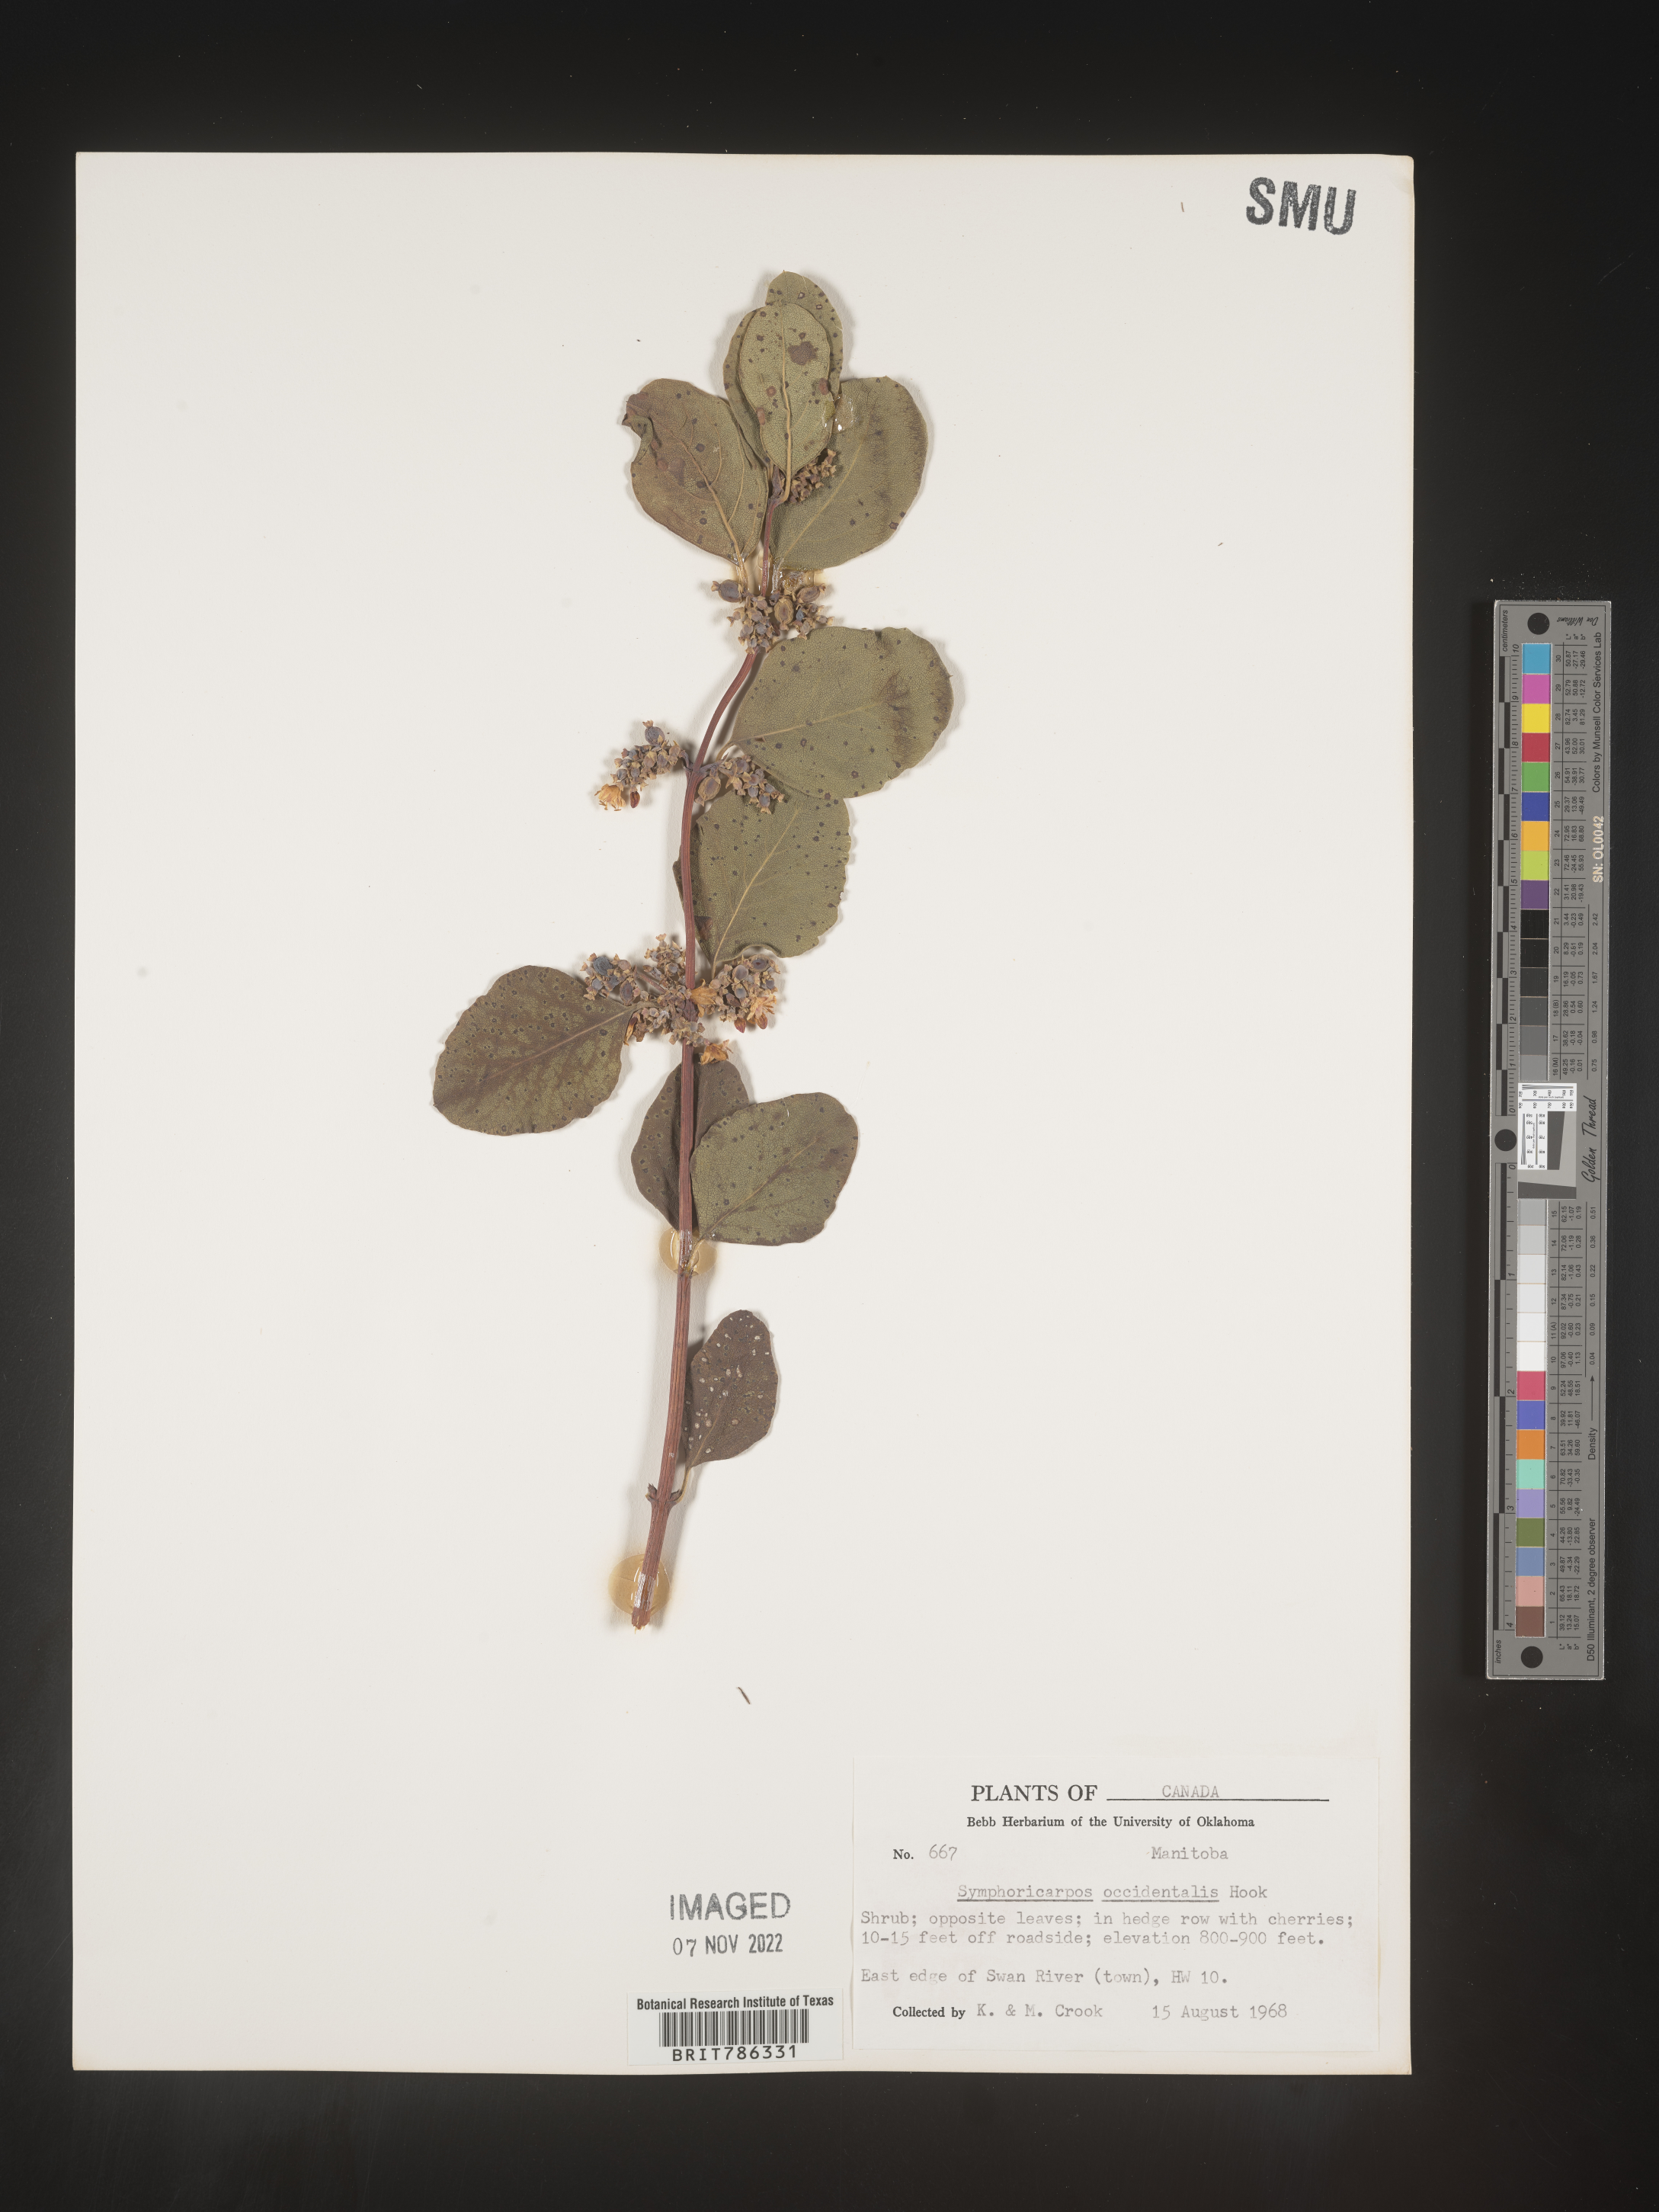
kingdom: Plantae
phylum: Tracheophyta
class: Magnoliopsida
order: Dipsacales
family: Caprifoliaceae
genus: Symphoricarpos
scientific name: Symphoricarpos occidentalis
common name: Wolfberry
